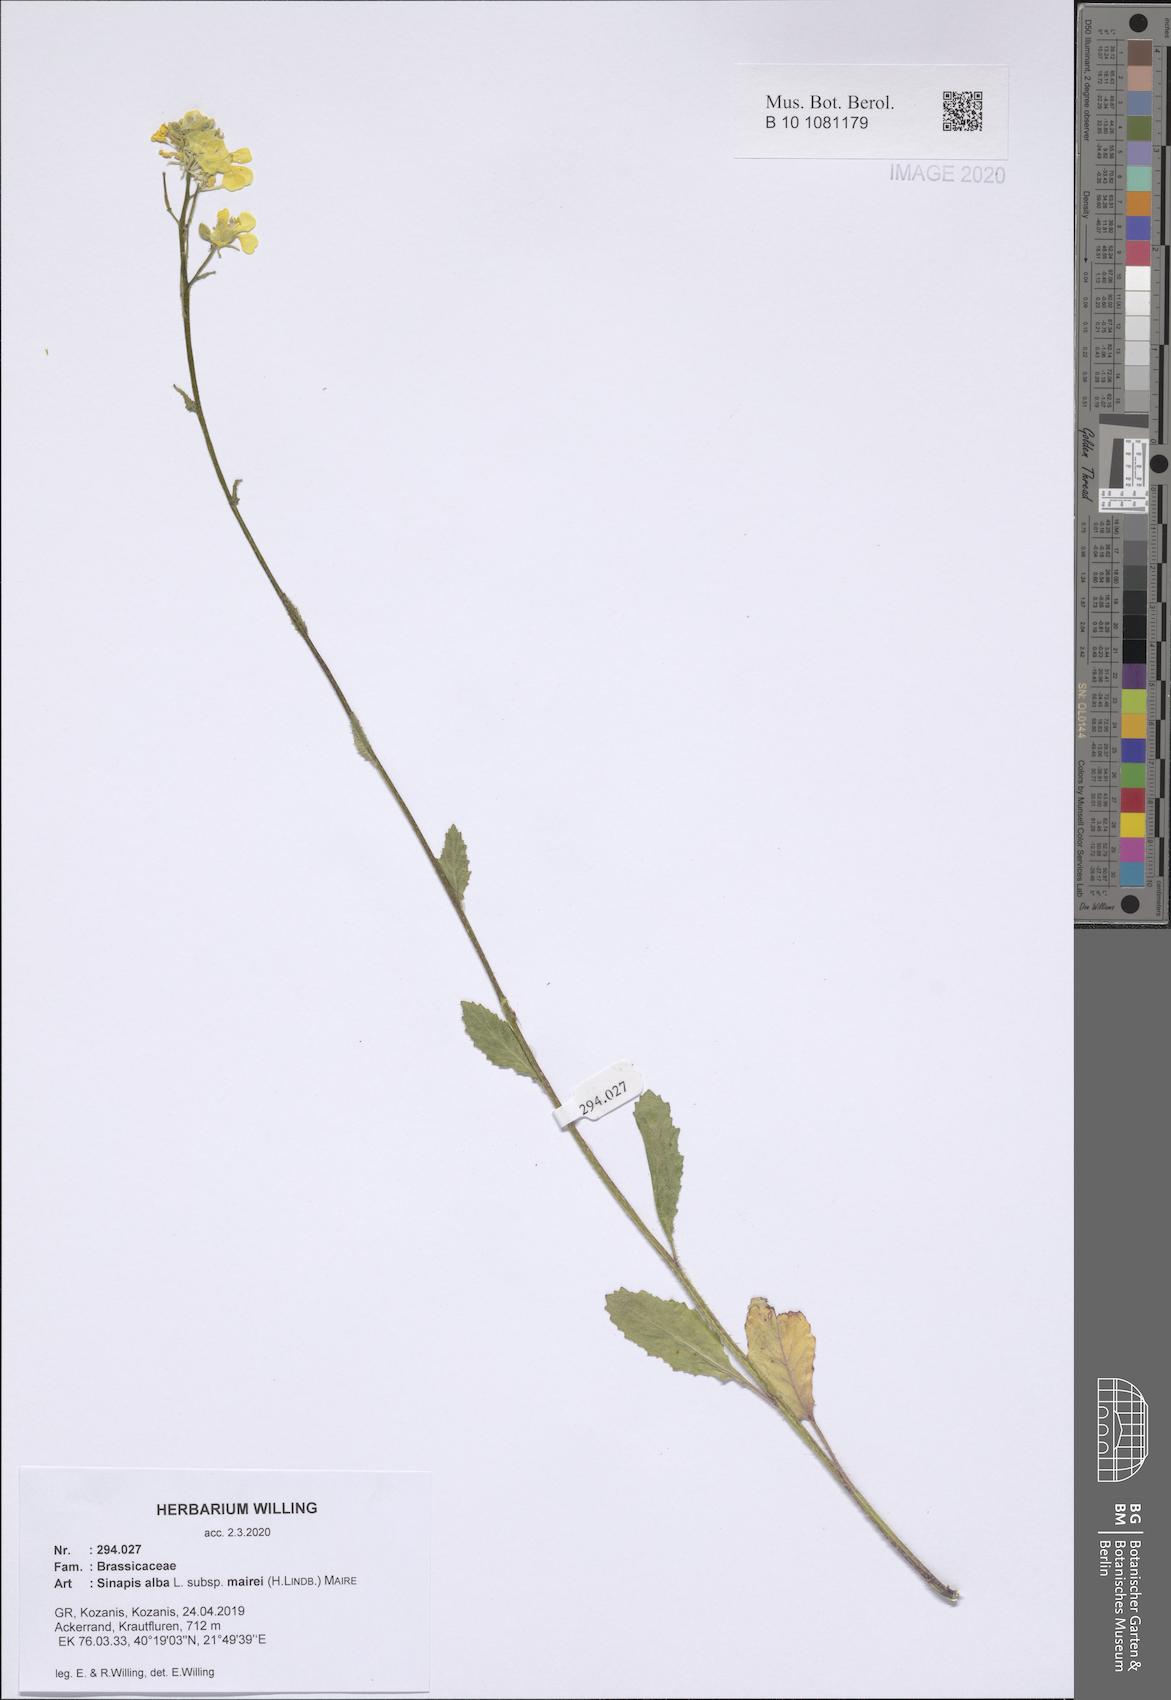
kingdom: Plantae
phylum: Tracheophyta
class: Magnoliopsida
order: Brassicales
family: Brassicaceae
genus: Sinapis
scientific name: Sinapis alba
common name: White mustard
